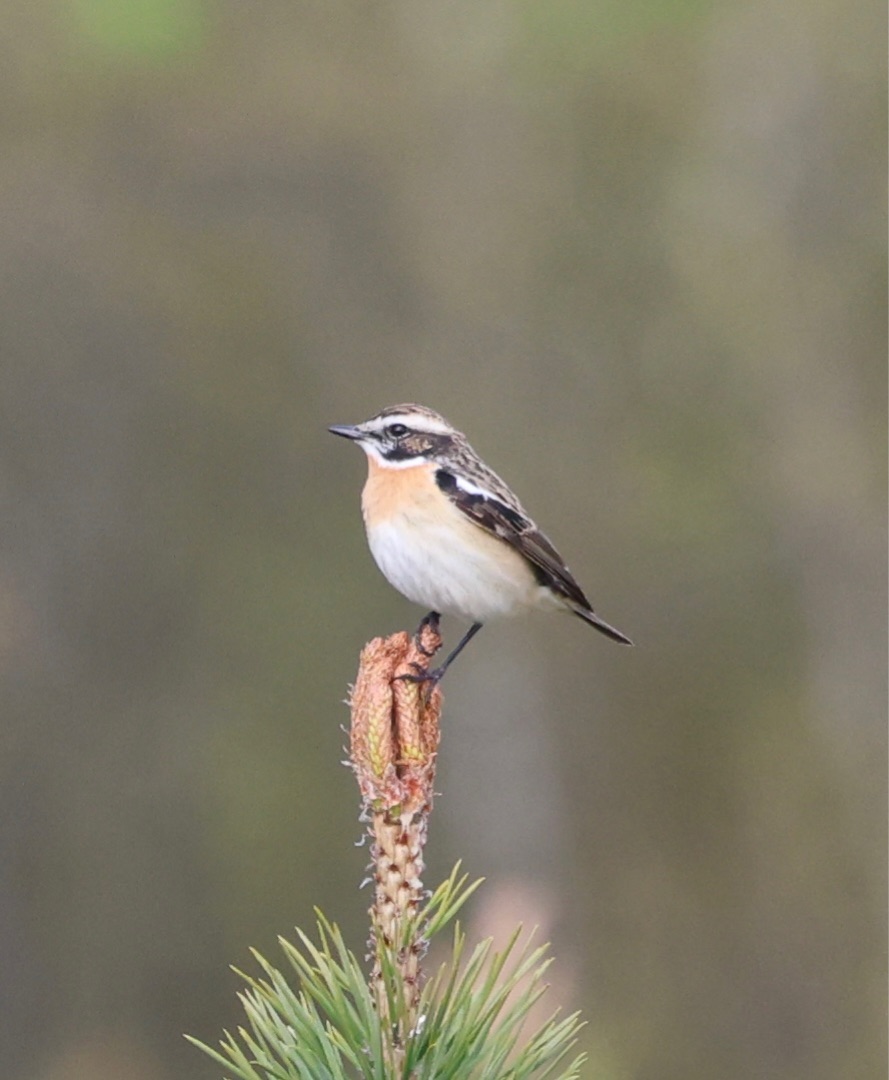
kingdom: Animalia
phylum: Chordata
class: Aves
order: Passeriformes
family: Muscicapidae
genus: Saxicola
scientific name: Saxicola rubetra
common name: Bynkefugl
